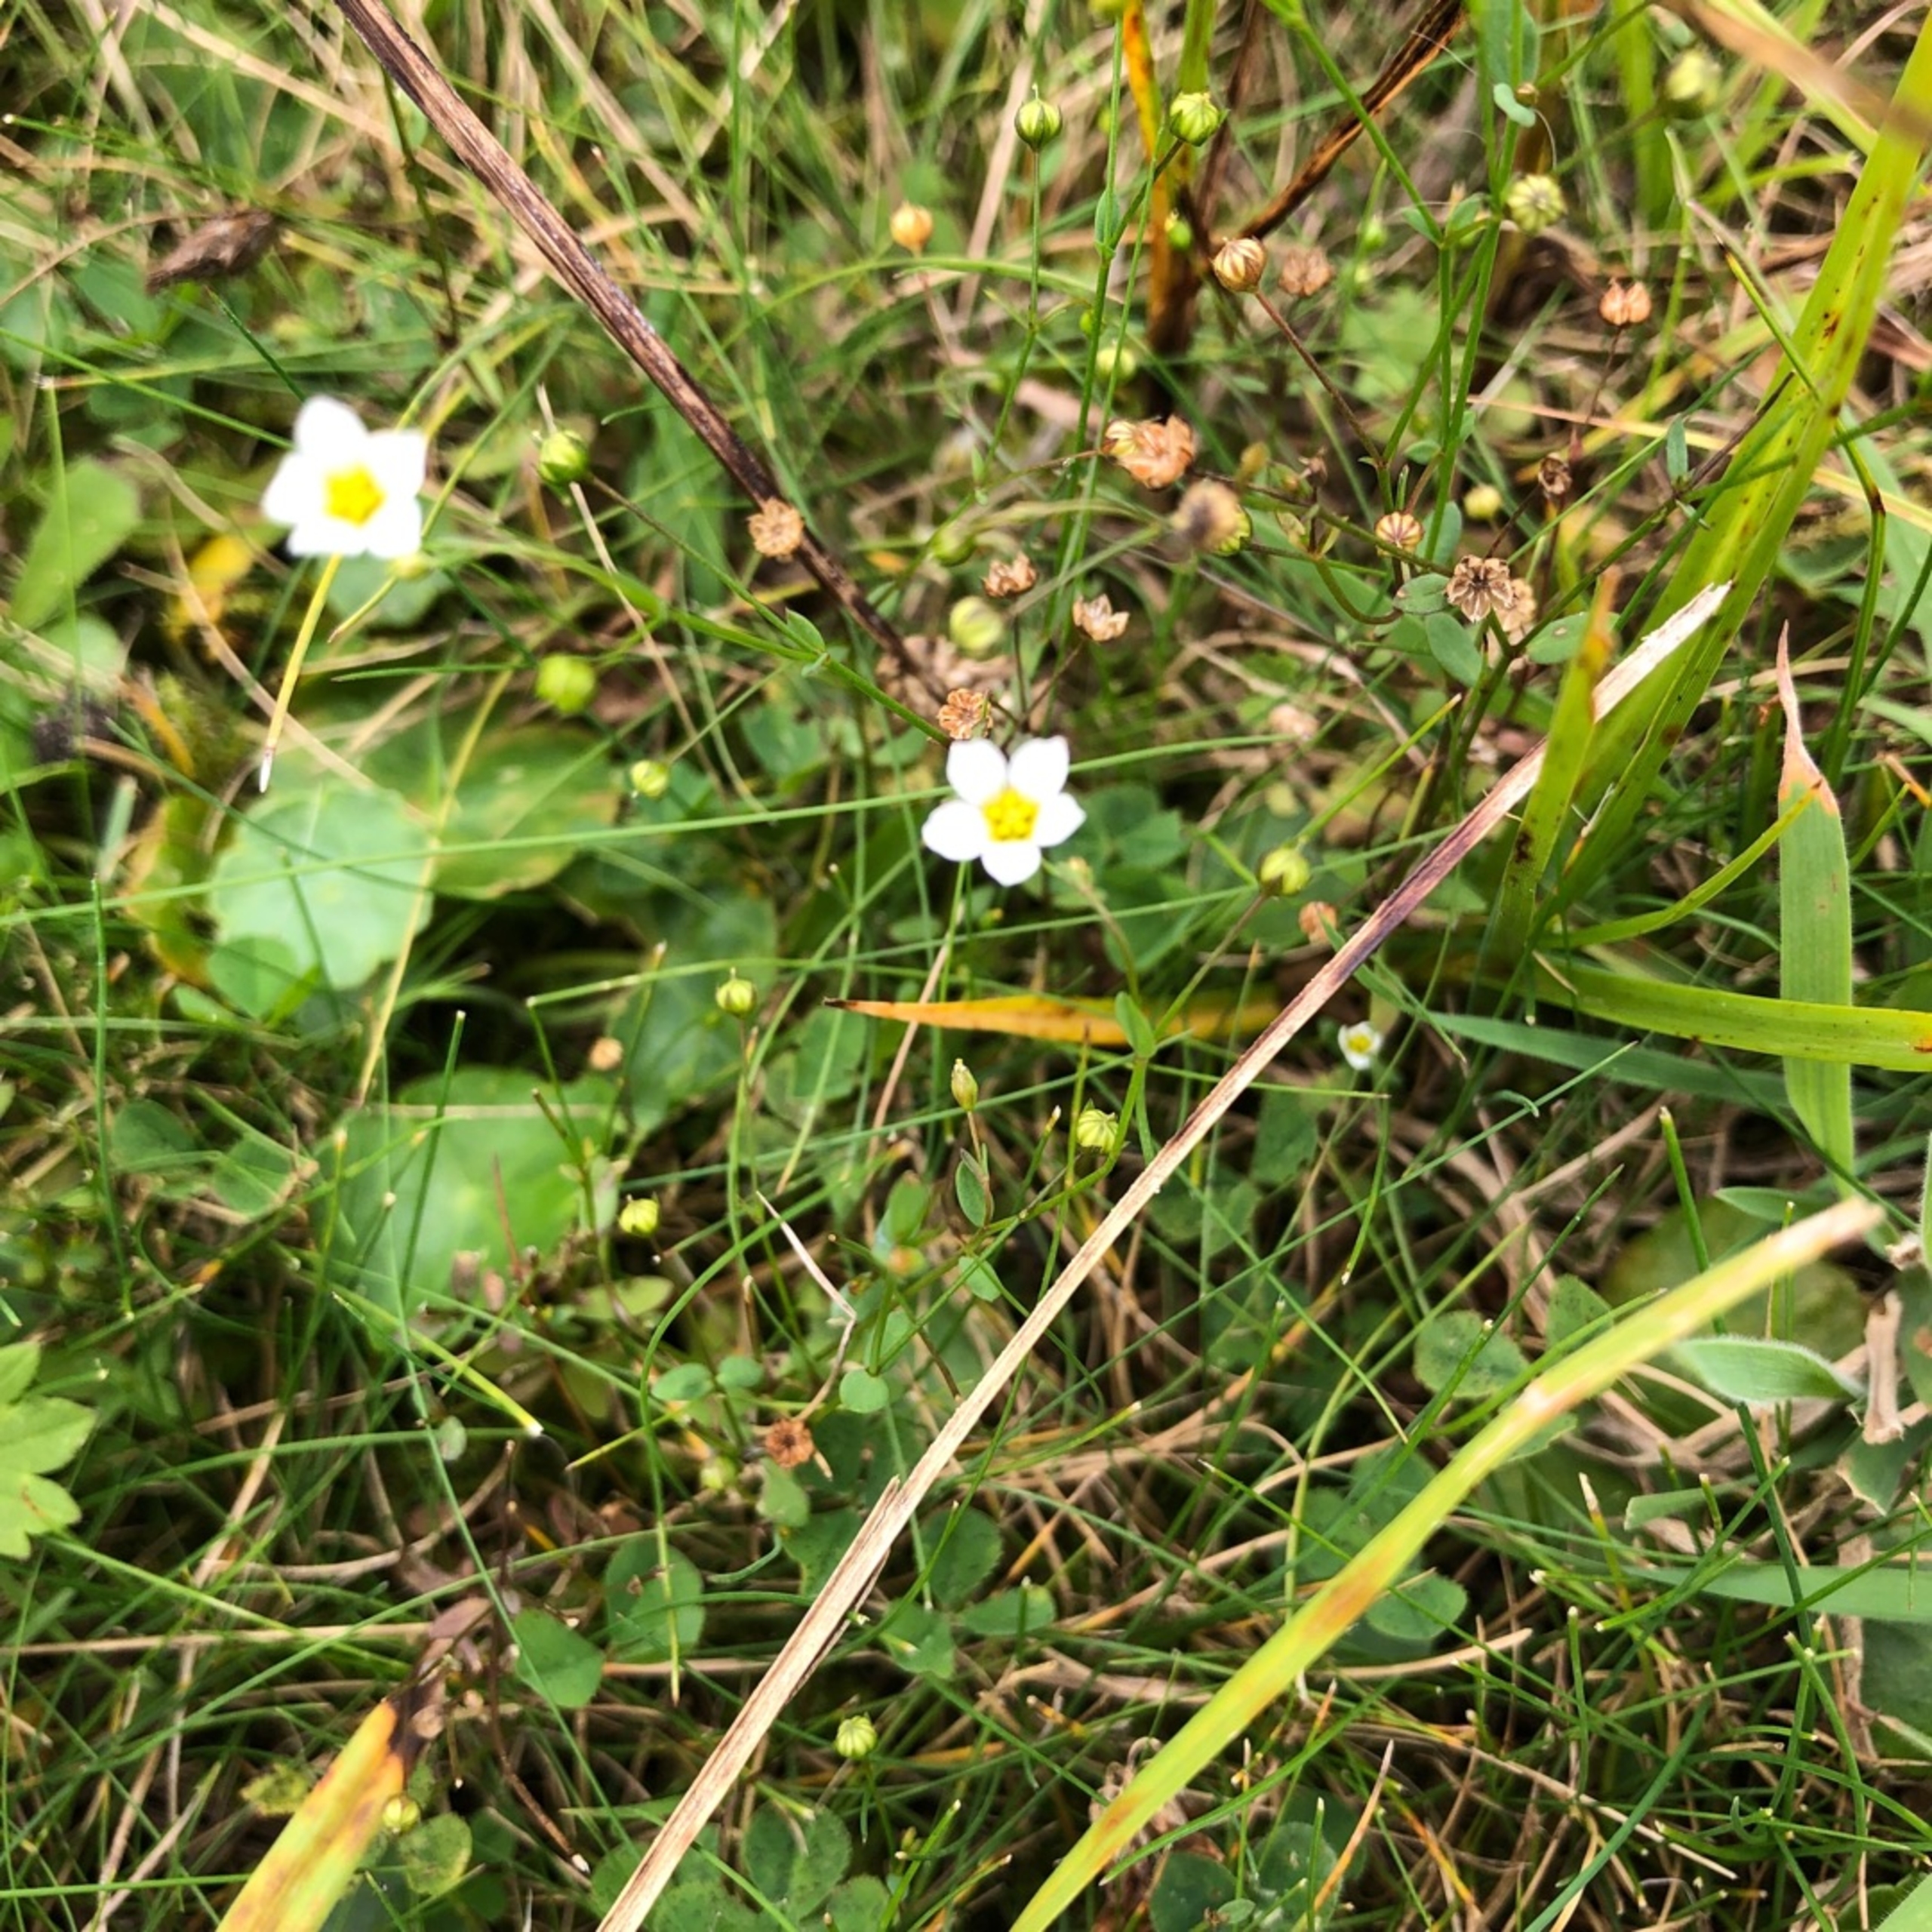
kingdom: Plantae
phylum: Tracheophyta
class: Magnoliopsida
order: Malpighiales
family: Linaceae
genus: Linum
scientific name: Linum catharticum
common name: Vild hør
